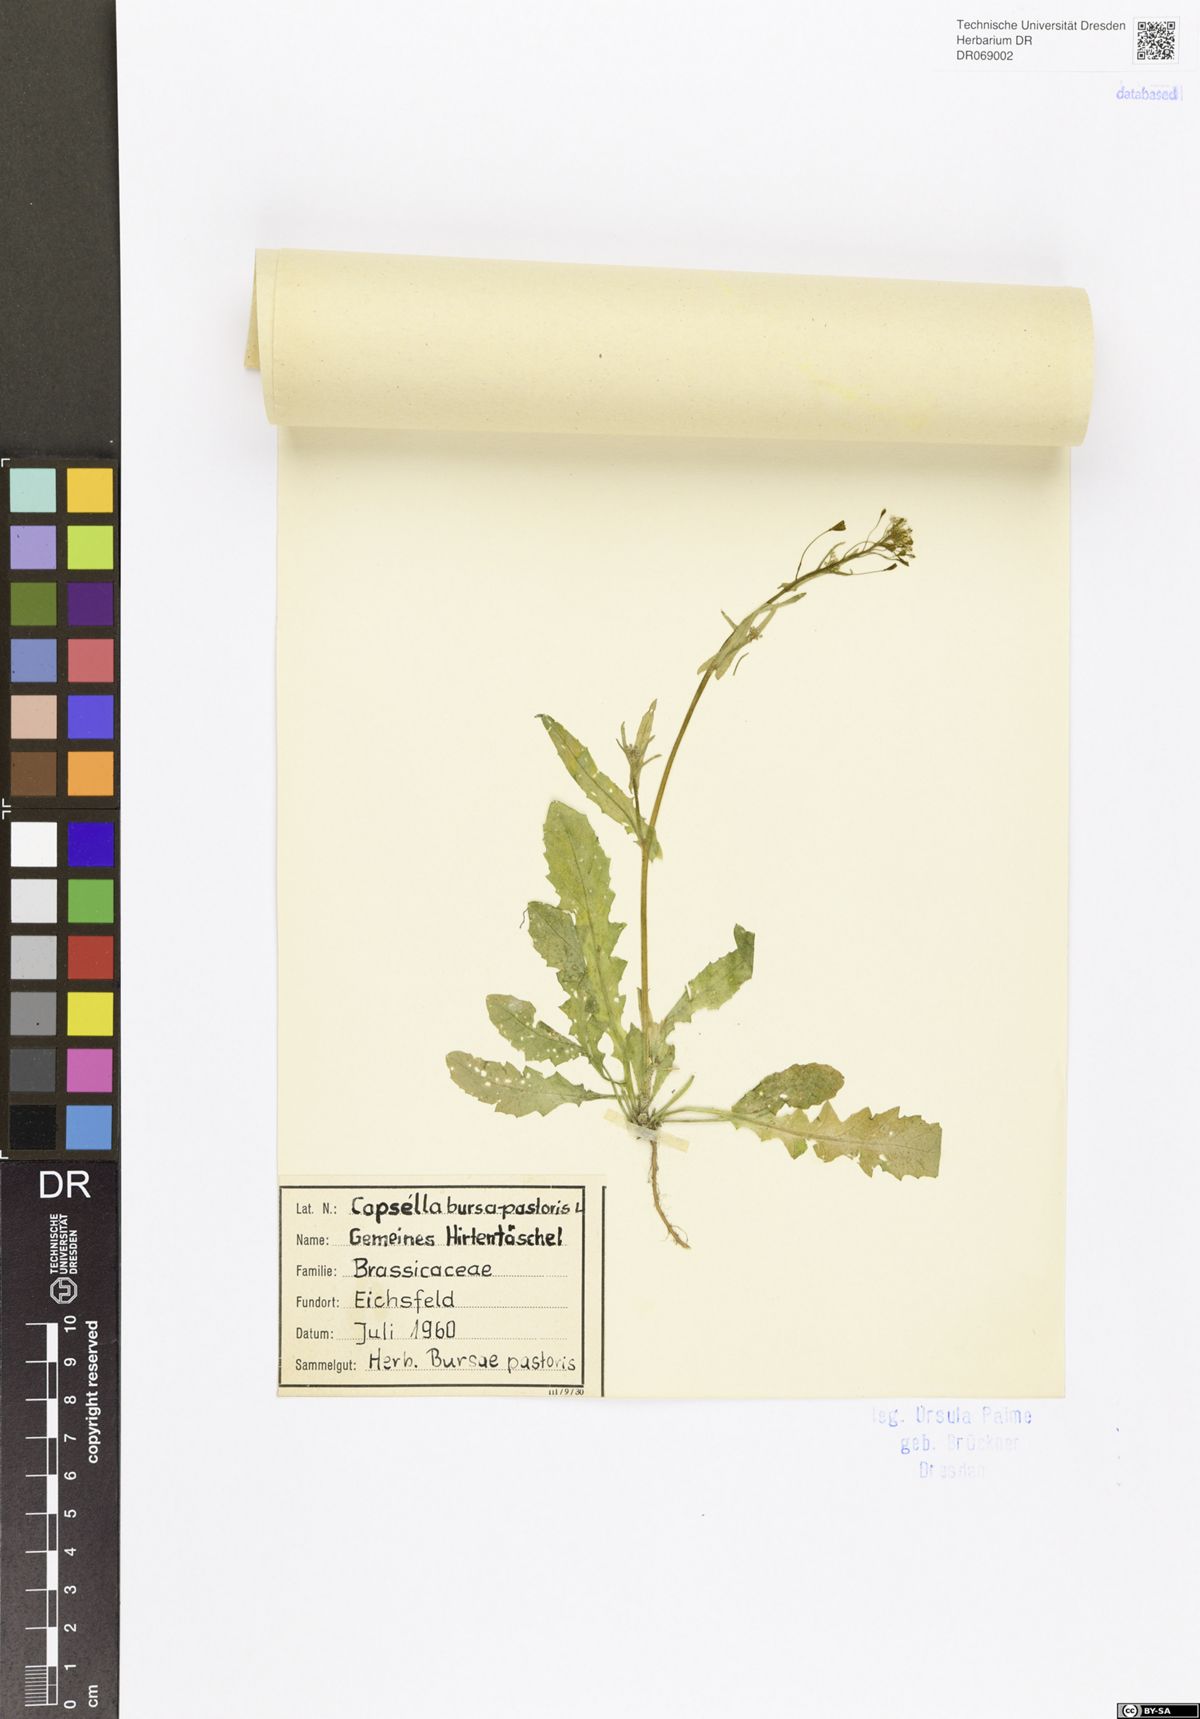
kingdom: Plantae
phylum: Tracheophyta
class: Magnoliopsida
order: Brassicales
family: Brassicaceae
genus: Capsella
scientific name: Capsella bursa-pastoris
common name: Shepherd's purse
